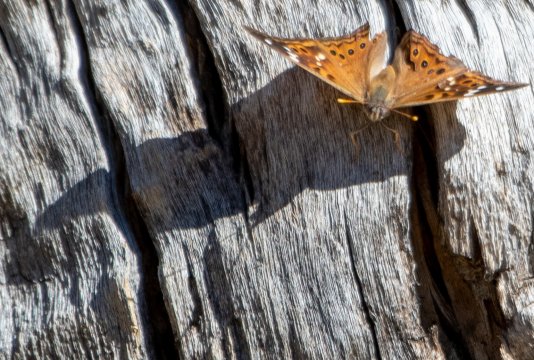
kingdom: Animalia
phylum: Arthropoda
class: Insecta
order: Lepidoptera
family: Nymphalidae
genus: Asterocampa
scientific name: Asterocampa clyton
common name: Tawny Emperor
